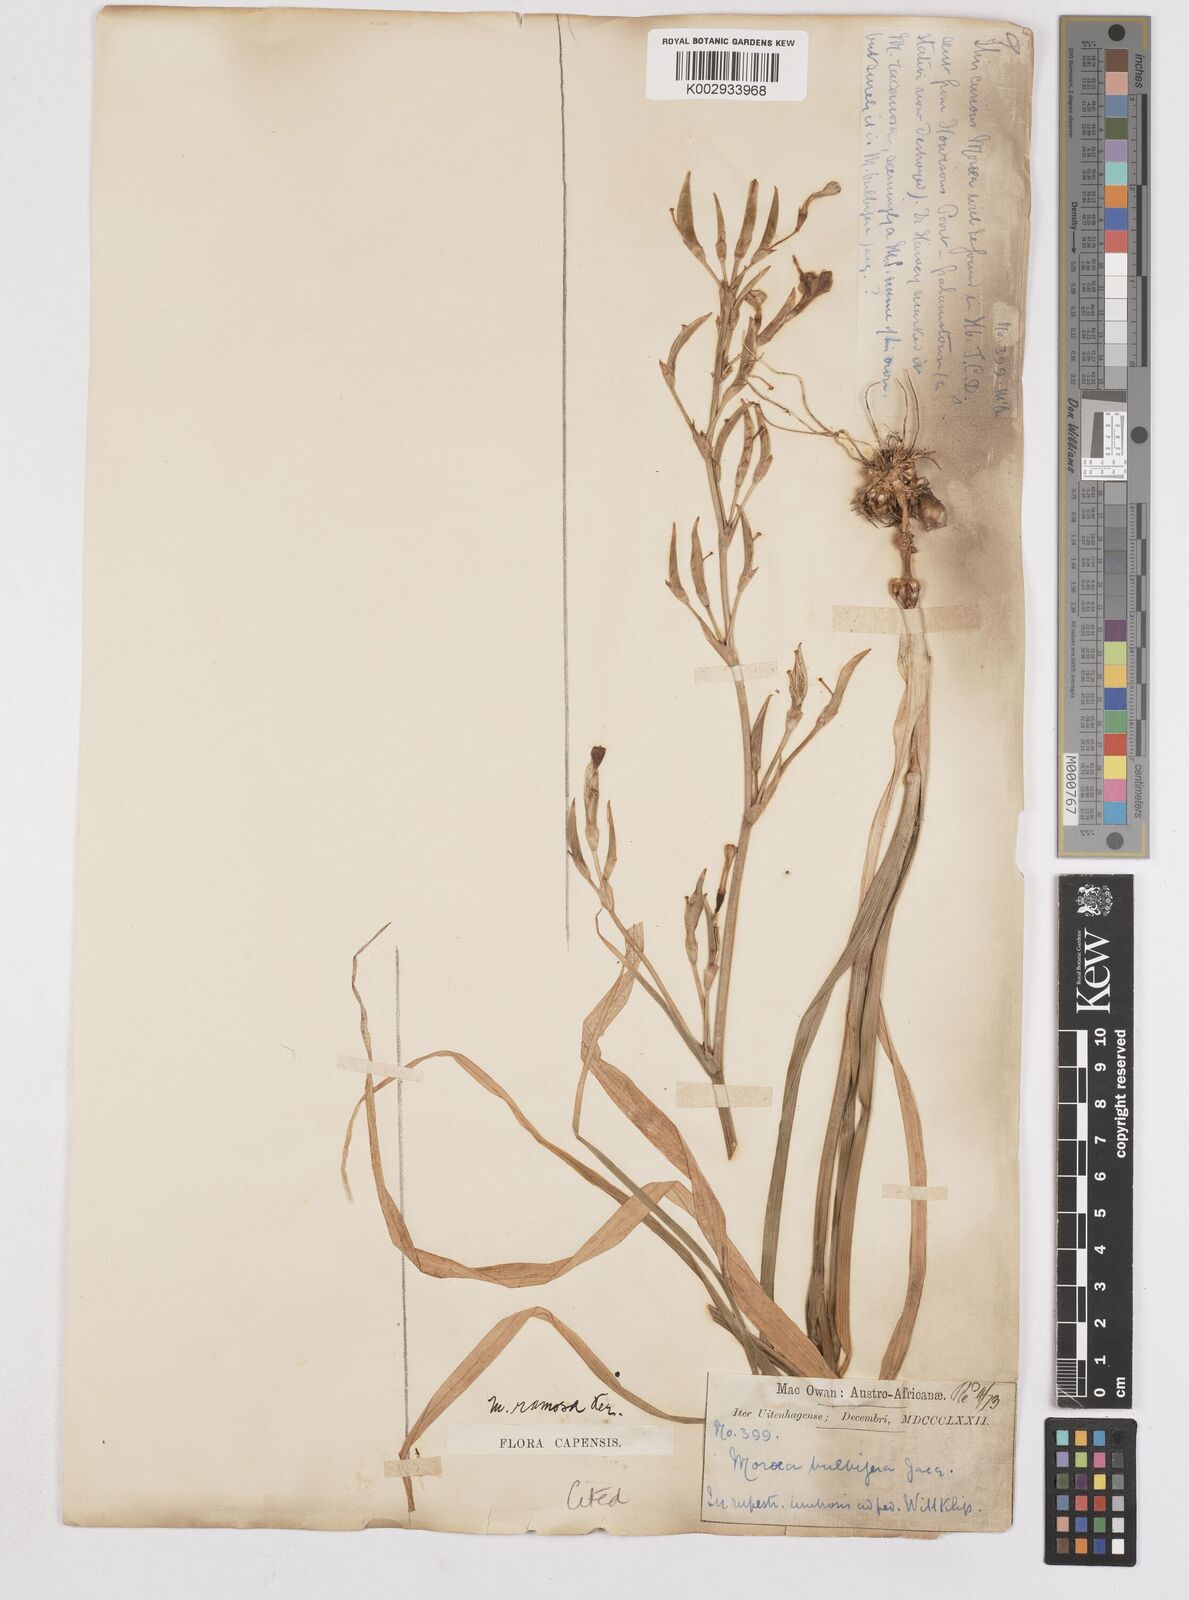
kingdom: Plantae
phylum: Tracheophyta
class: Liliopsida
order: Asparagales
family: Iridaceae
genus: Moraea
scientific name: Moraea ramosissima
